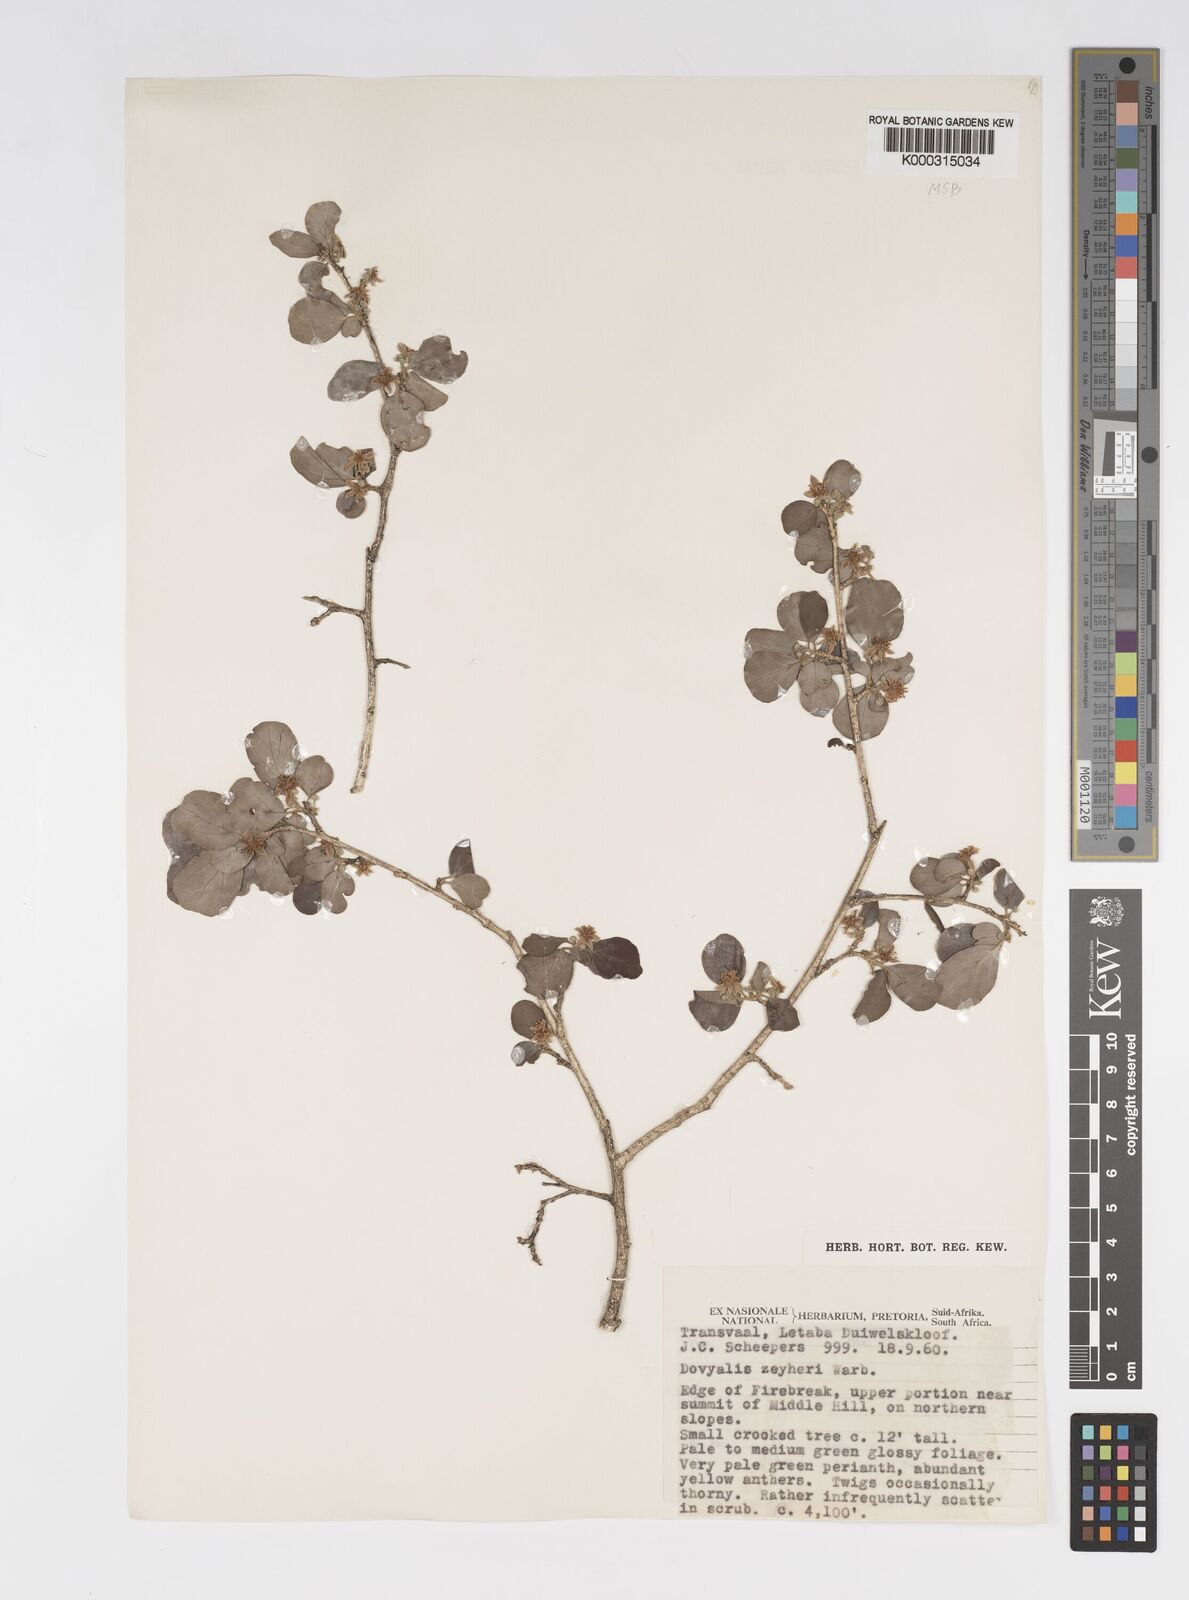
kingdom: Plantae
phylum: Tracheophyta
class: Magnoliopsida
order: Malpighiales
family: Salicaceae
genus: Dovyalis
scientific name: Dovyalis zeyheri
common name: Apricot sourberry
